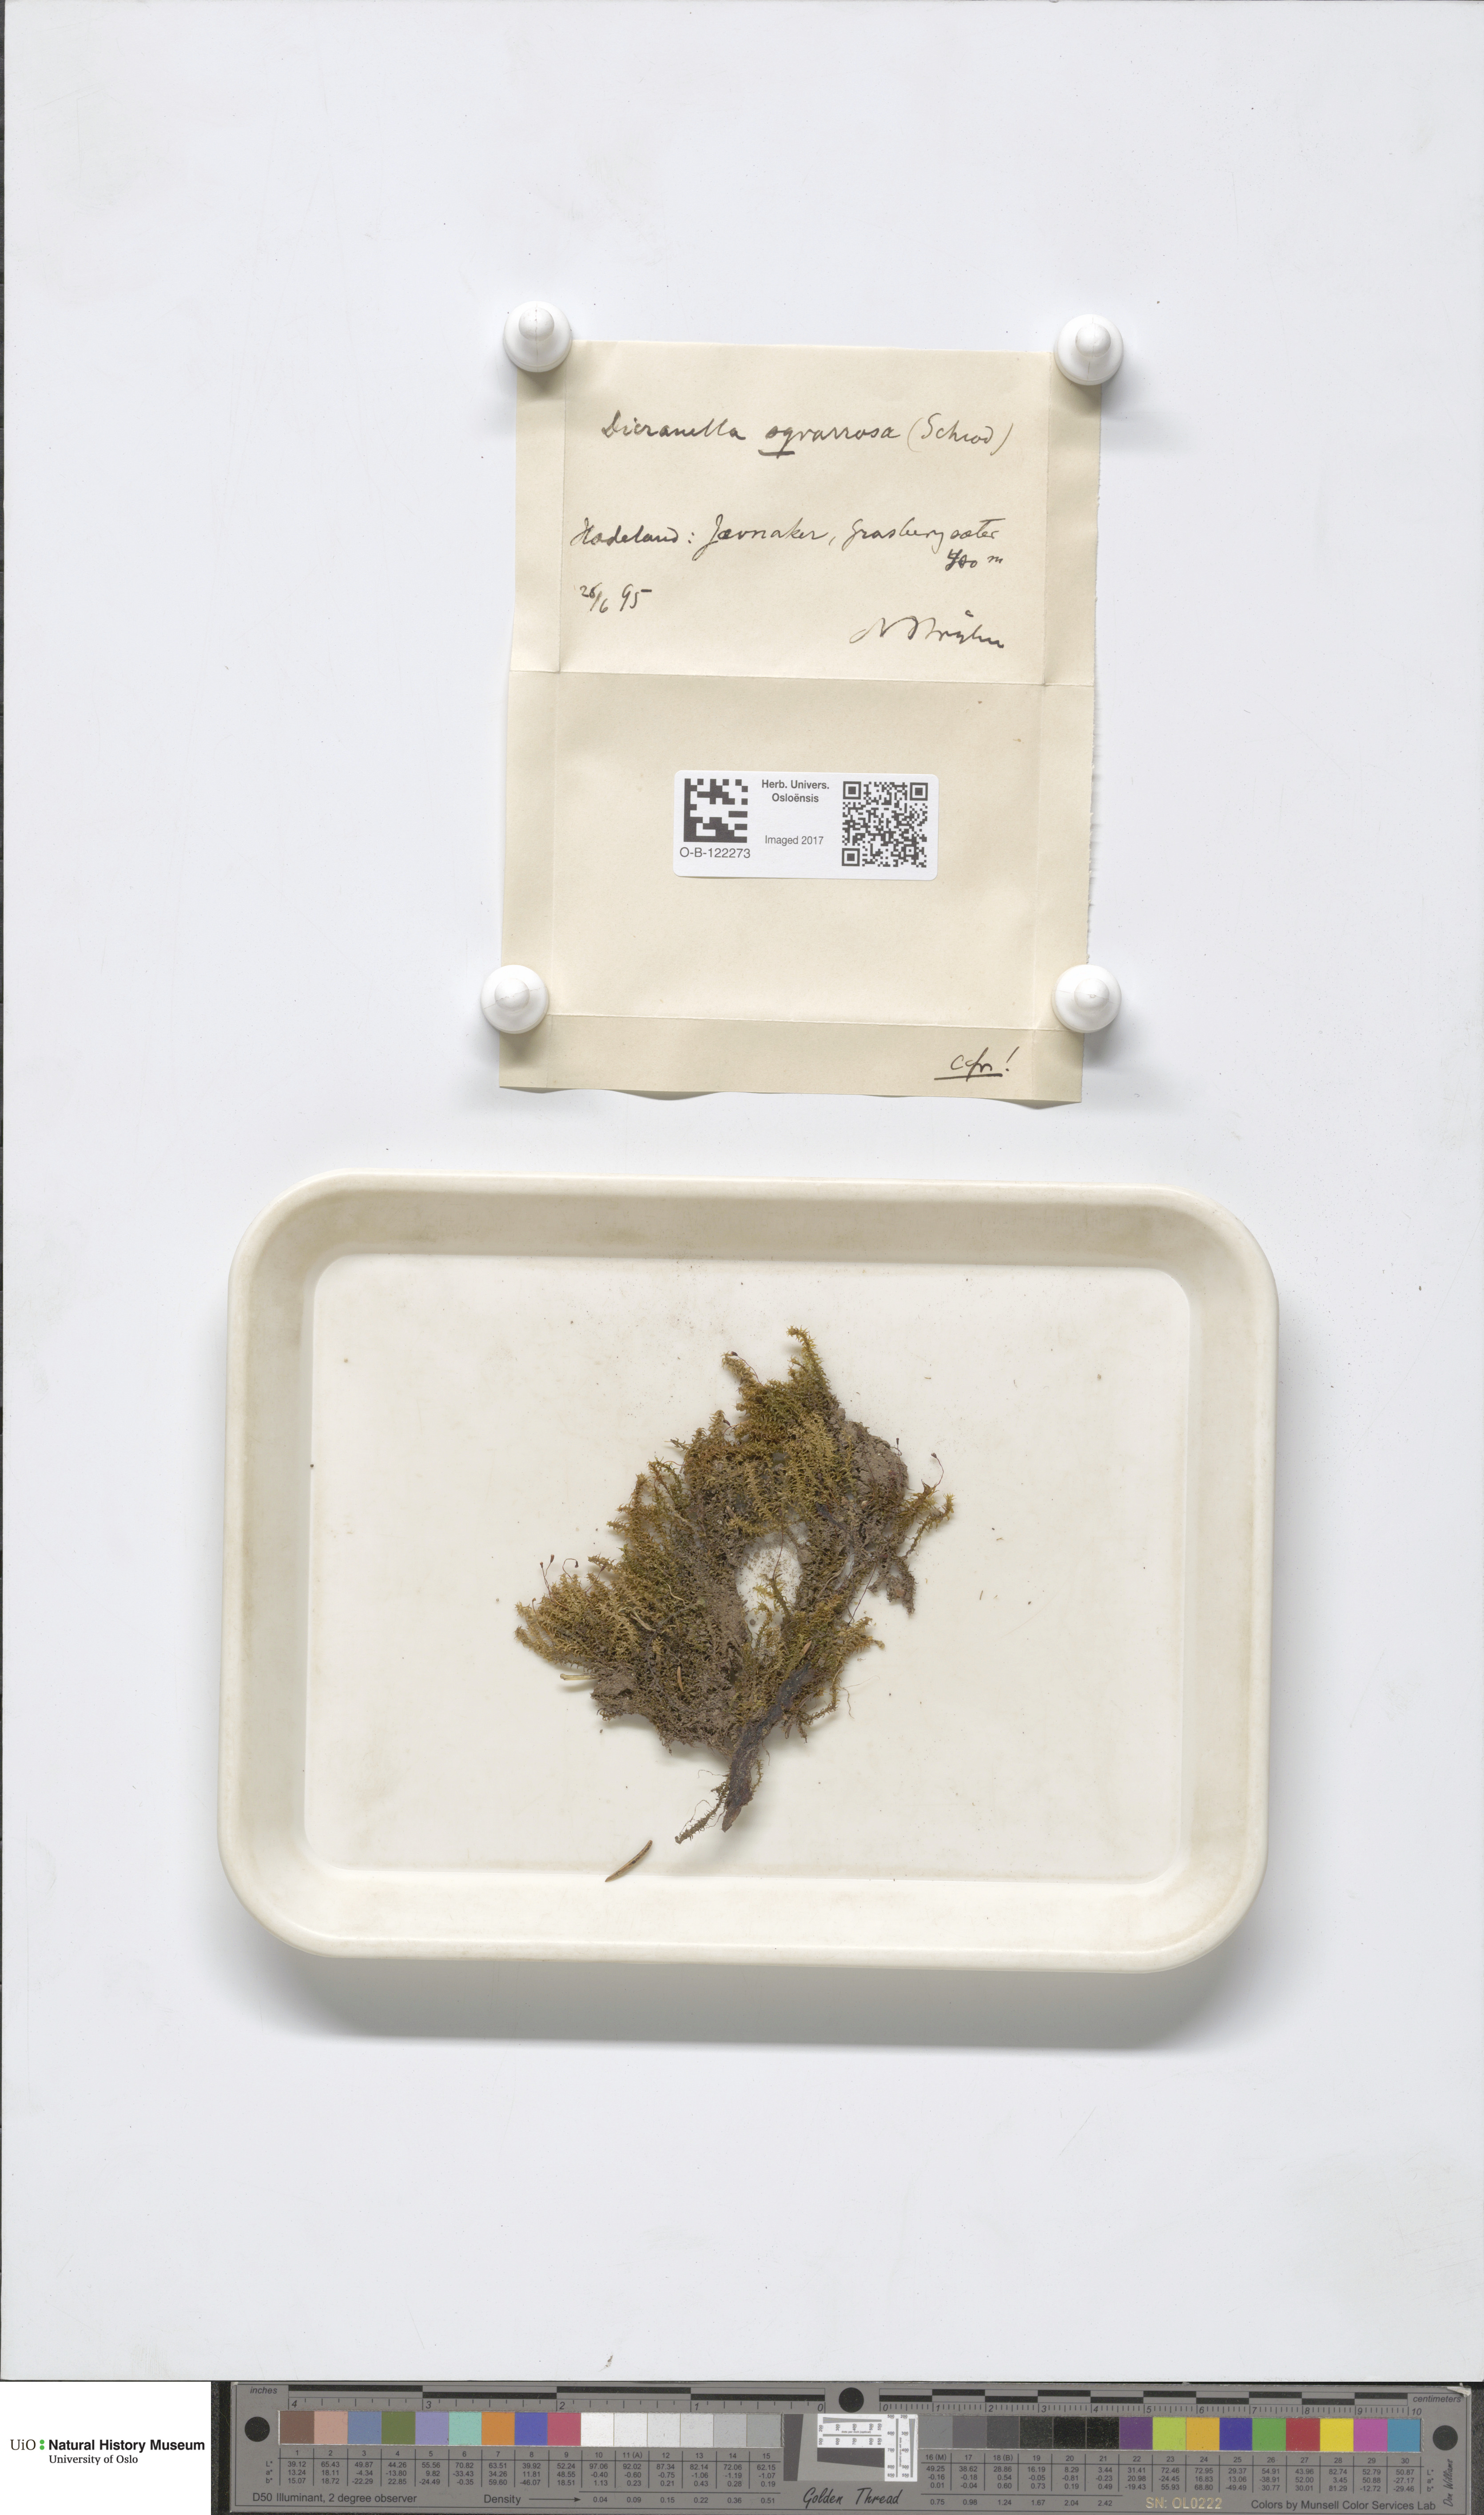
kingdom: Plantae
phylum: Bryophyta
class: Bryopsida
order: Dicranales
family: Aongstroemiaceae
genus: Diobelonella
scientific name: Diobelonella palustris
